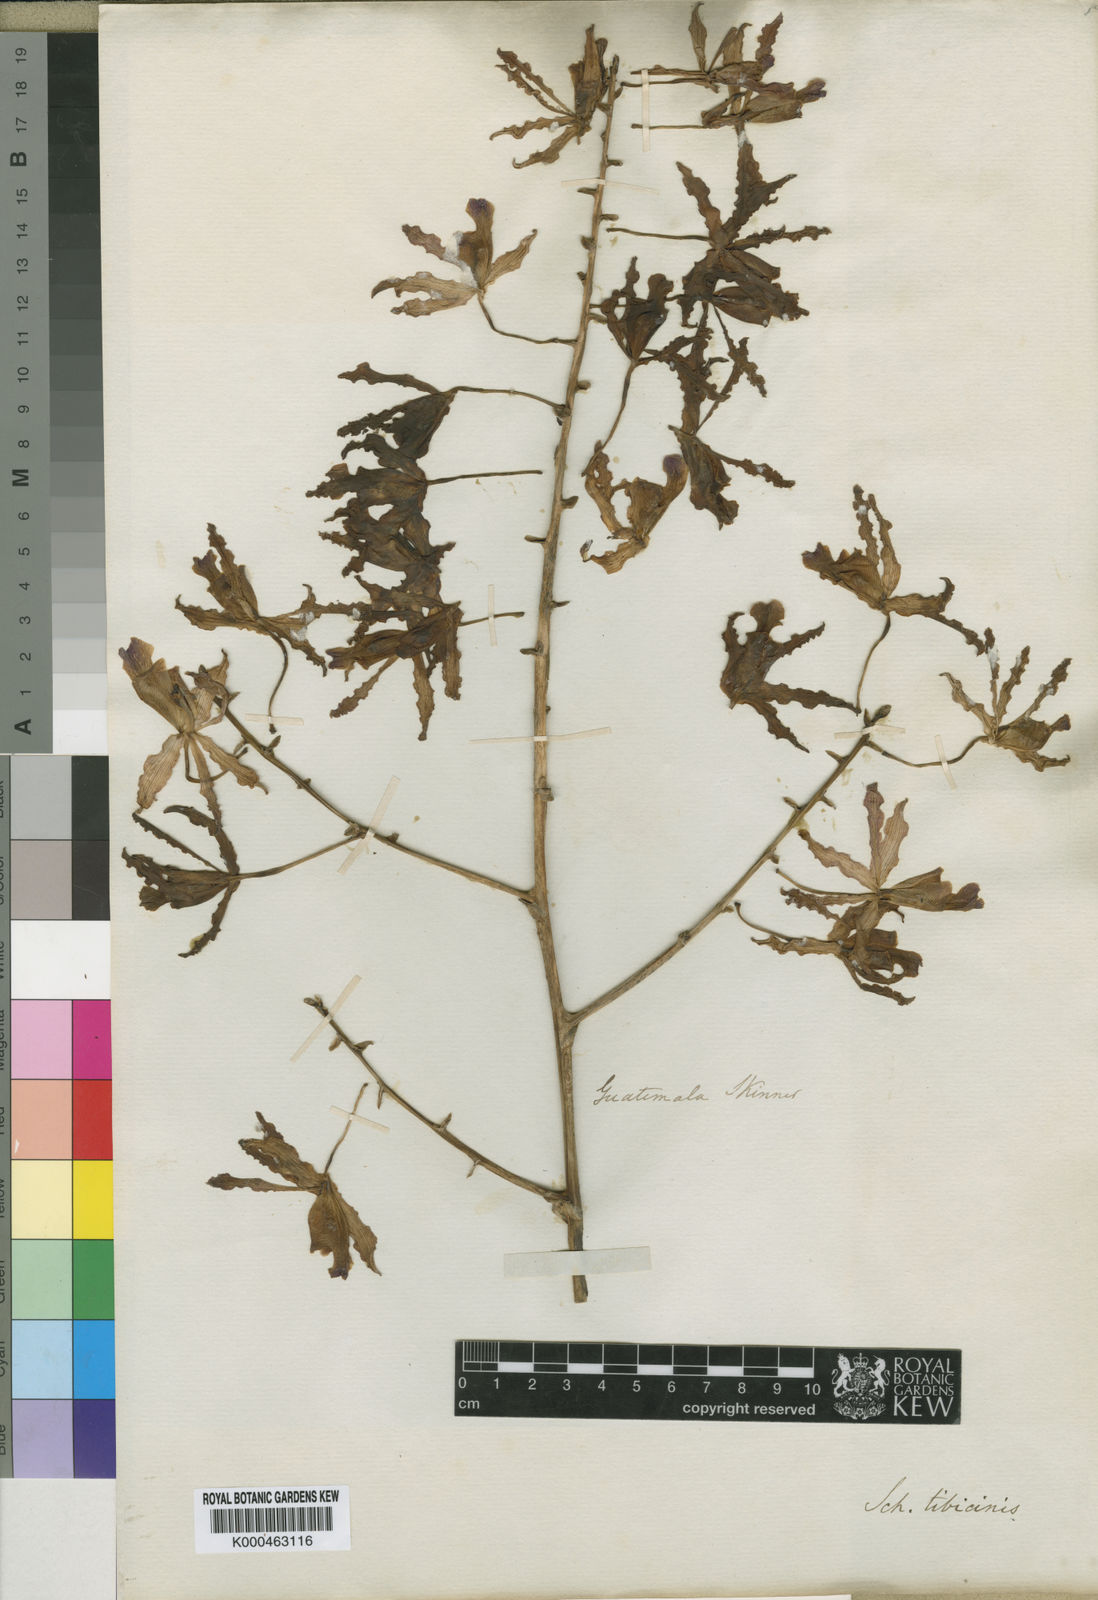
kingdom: Plantae
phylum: Tracheophyta
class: Liliopsida
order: Asparagales
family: Orchidaceae
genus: Laelia
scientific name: Laelia
